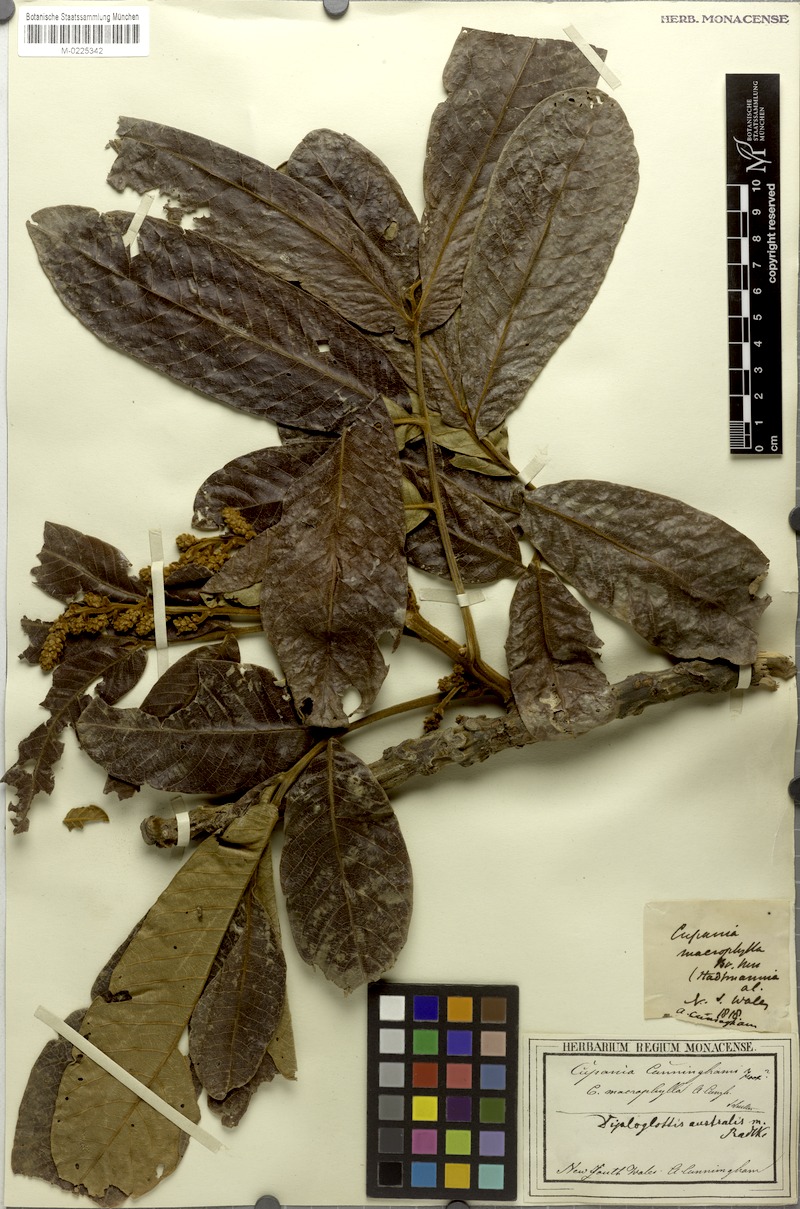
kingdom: Plantae
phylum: Tracheophyta
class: Magnoliopsida
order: Sapindales
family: Sapindaceae
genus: Diploglottis
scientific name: Diploglottis australis
